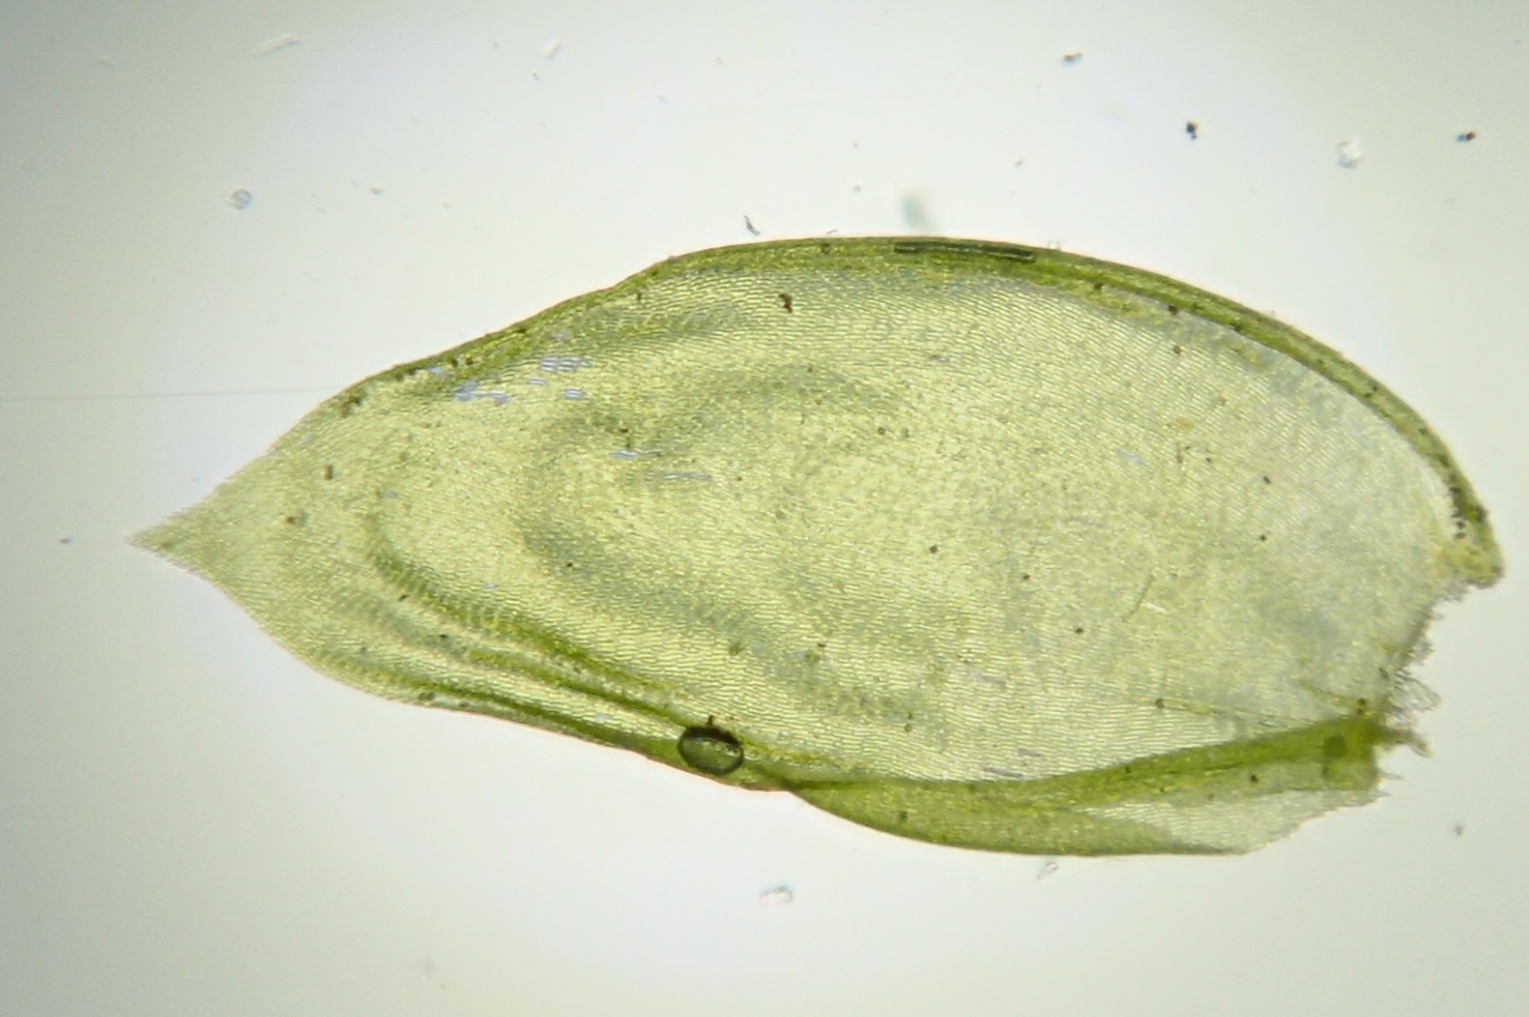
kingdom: Plantae
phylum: Bryophyta
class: Bryopsida
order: Hypnales
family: Neckeraceae
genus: Neckera
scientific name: Neckera pumila
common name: Lav fladmos
